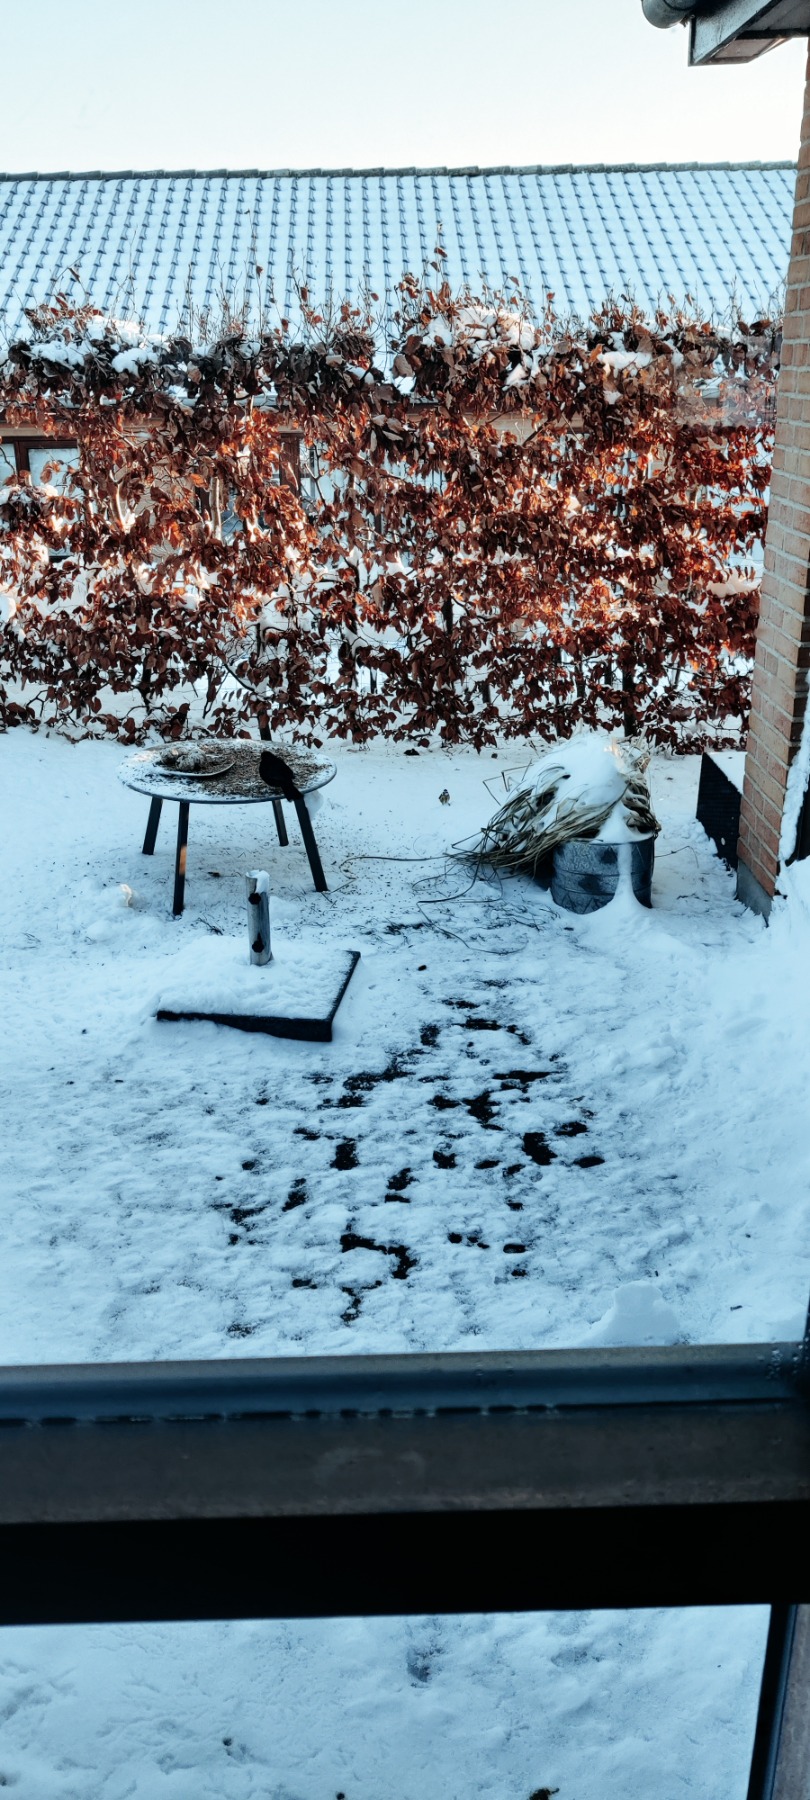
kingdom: Animalia
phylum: Chordata
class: Aves
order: Passeriformes
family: Paridae
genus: Cyanistes
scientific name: Cyanistes caeruleus
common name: Blåmejse
